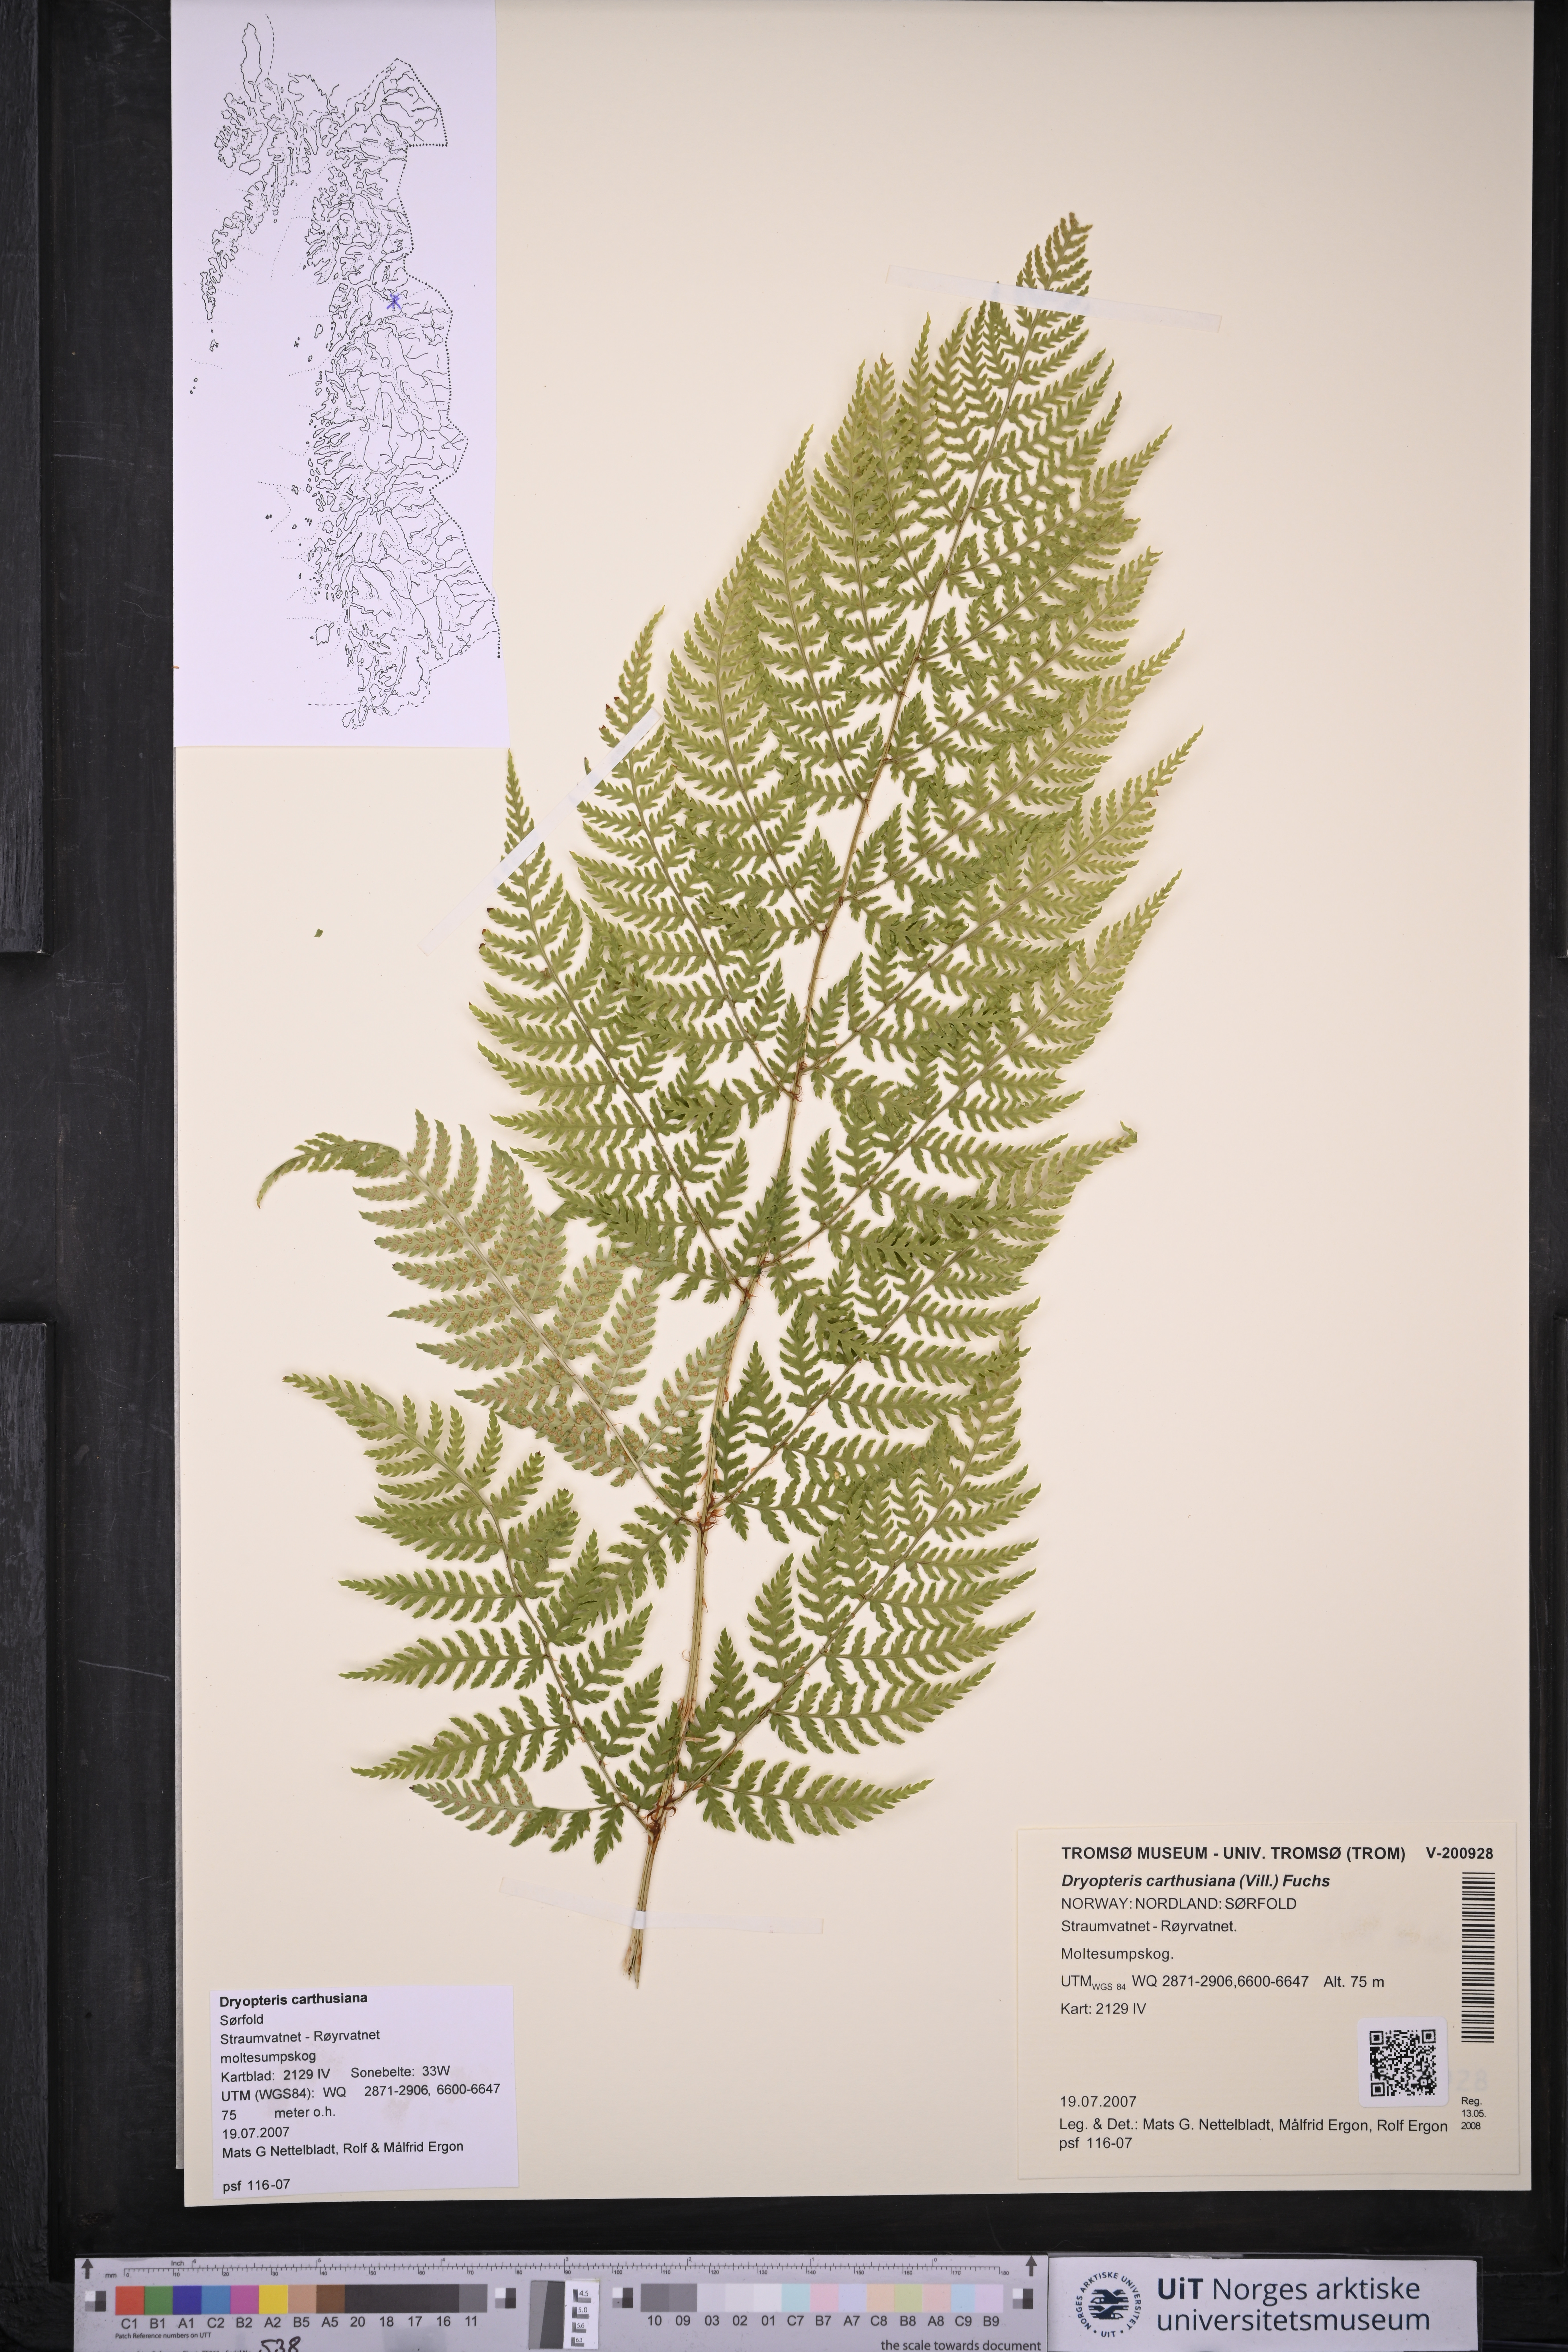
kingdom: Plantae
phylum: Tracheophyta
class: Polypodiopsida
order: Polypodiales
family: Dryopteridaceae
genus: Dryopteris
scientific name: Dryopteris carthusiana
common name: Narrow buckler-fern
